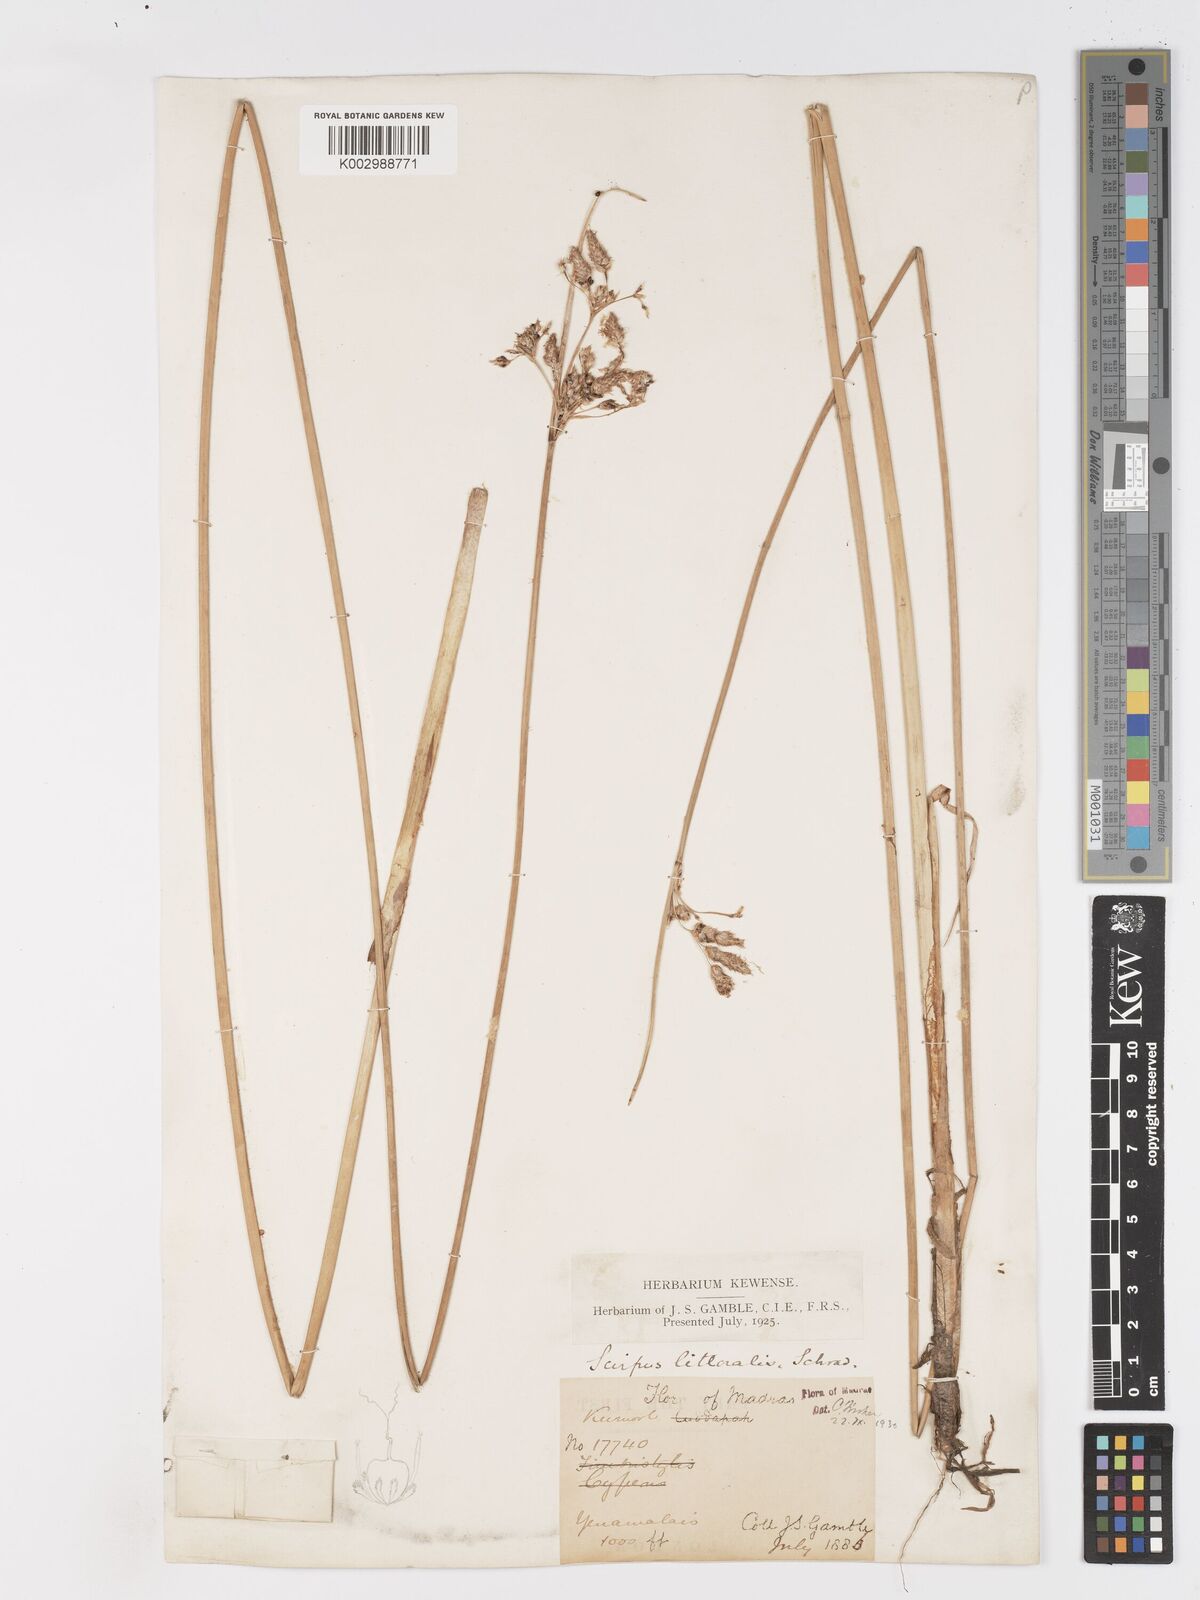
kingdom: Plantae
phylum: Tracheophyta
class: Liliopsida
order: Poales
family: Cyperaceae
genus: Schoenoplectus
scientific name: Schoenoplectus litoralis
